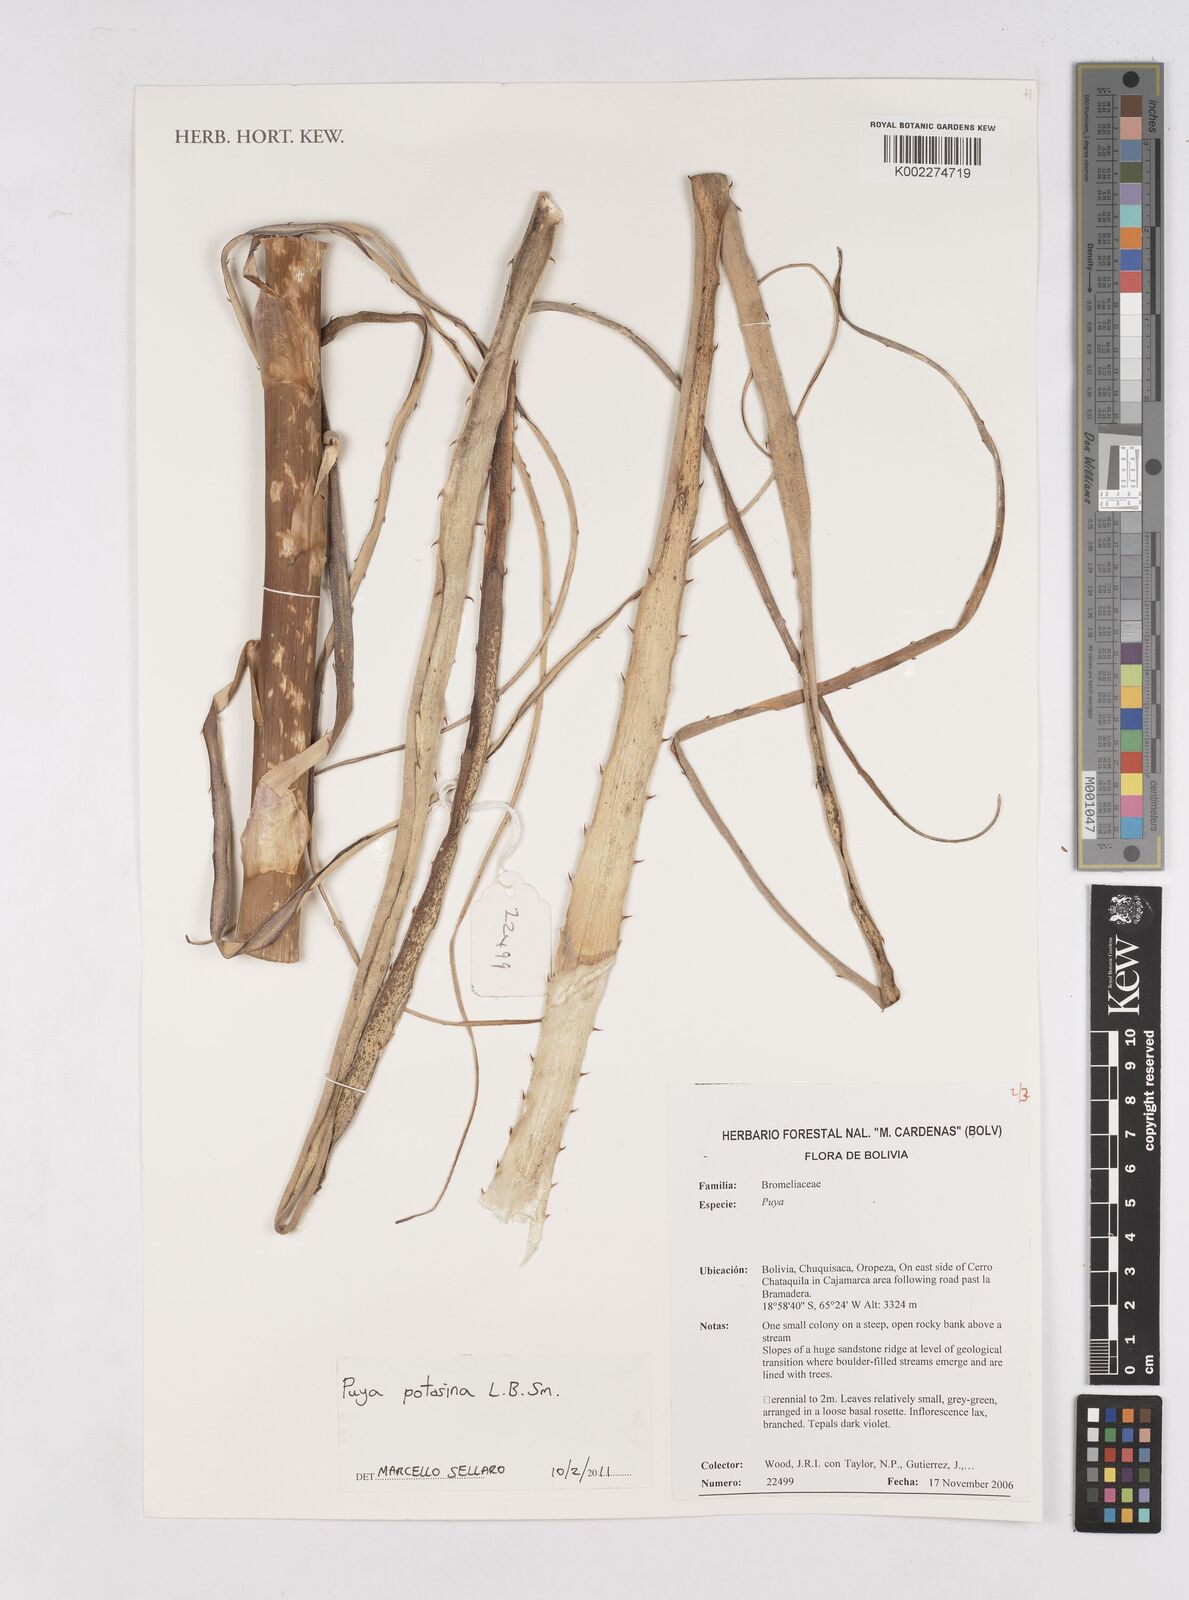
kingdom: Plantae
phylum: Tracheophyta
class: Liliopsida
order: Poales
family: Bromeliaceae
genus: Puya
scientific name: Puya potosina
